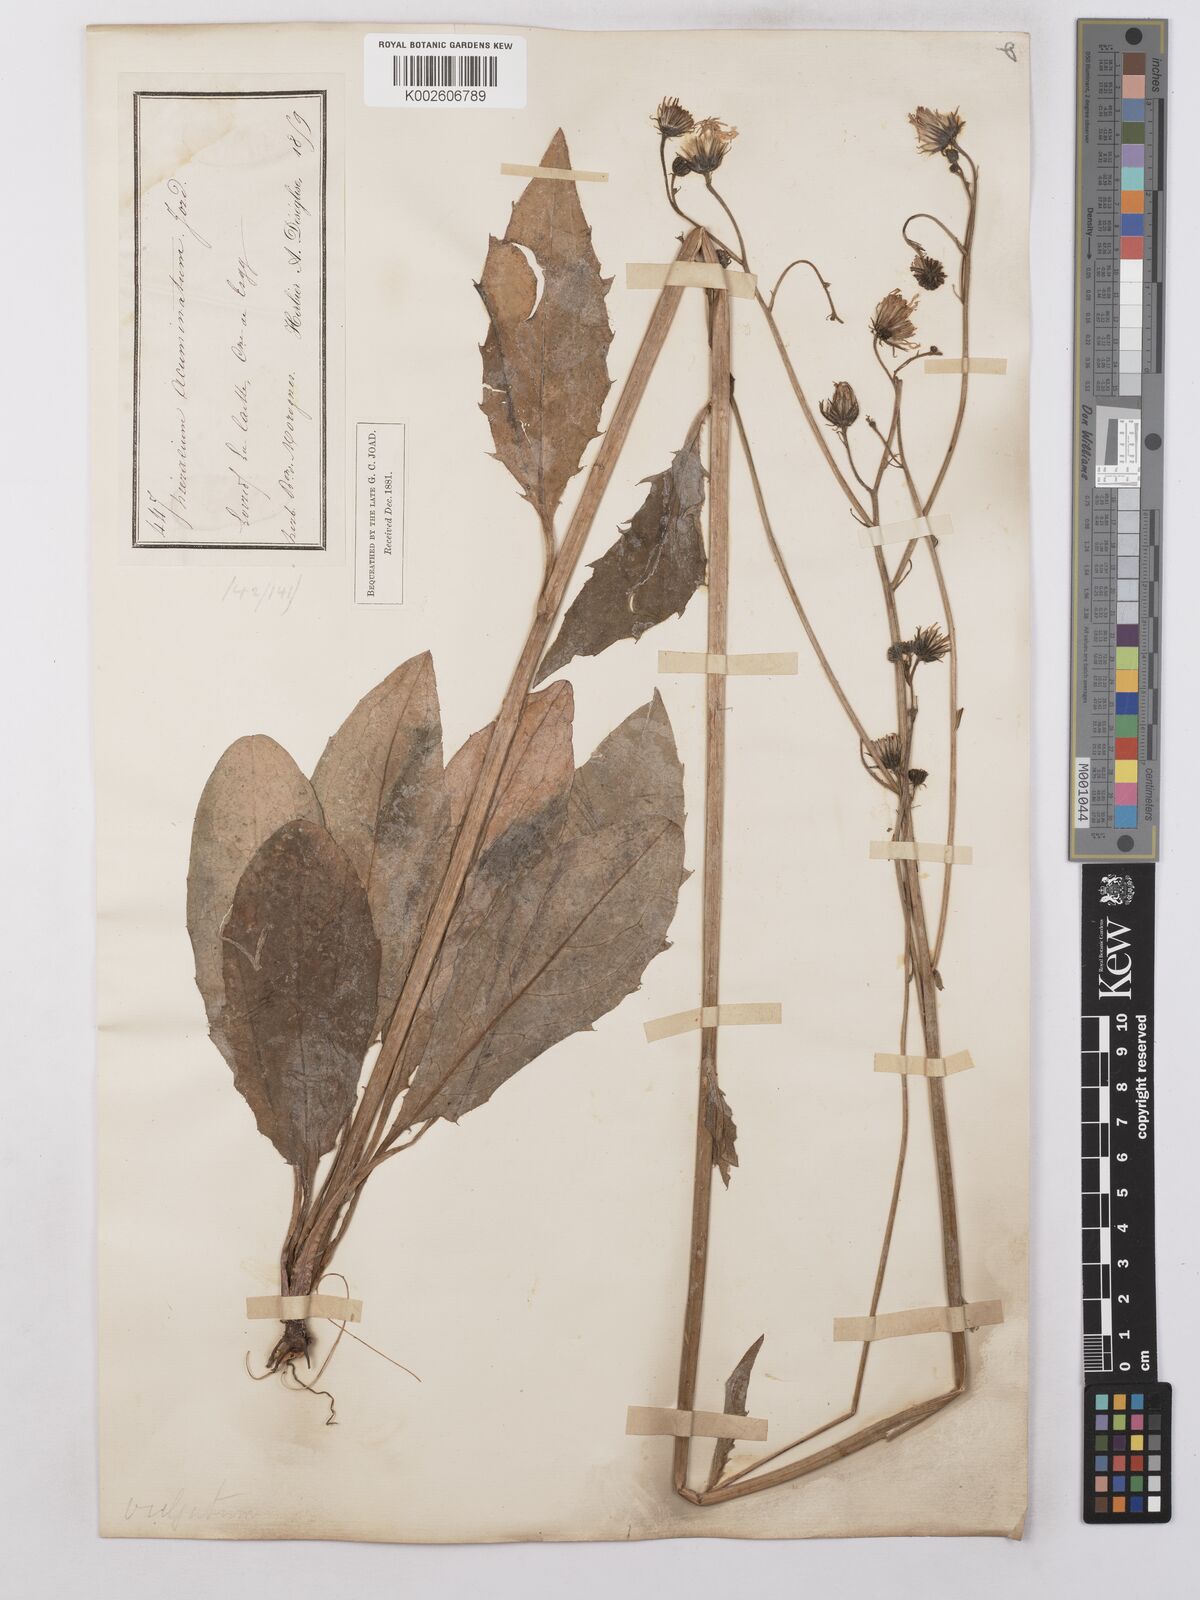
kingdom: Plantae
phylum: Tracheophyta
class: Magnoliopsida
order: Asterales
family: Asteraceae
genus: Hieracium
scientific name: Hieracium lachenalii
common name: Common hawkweed
